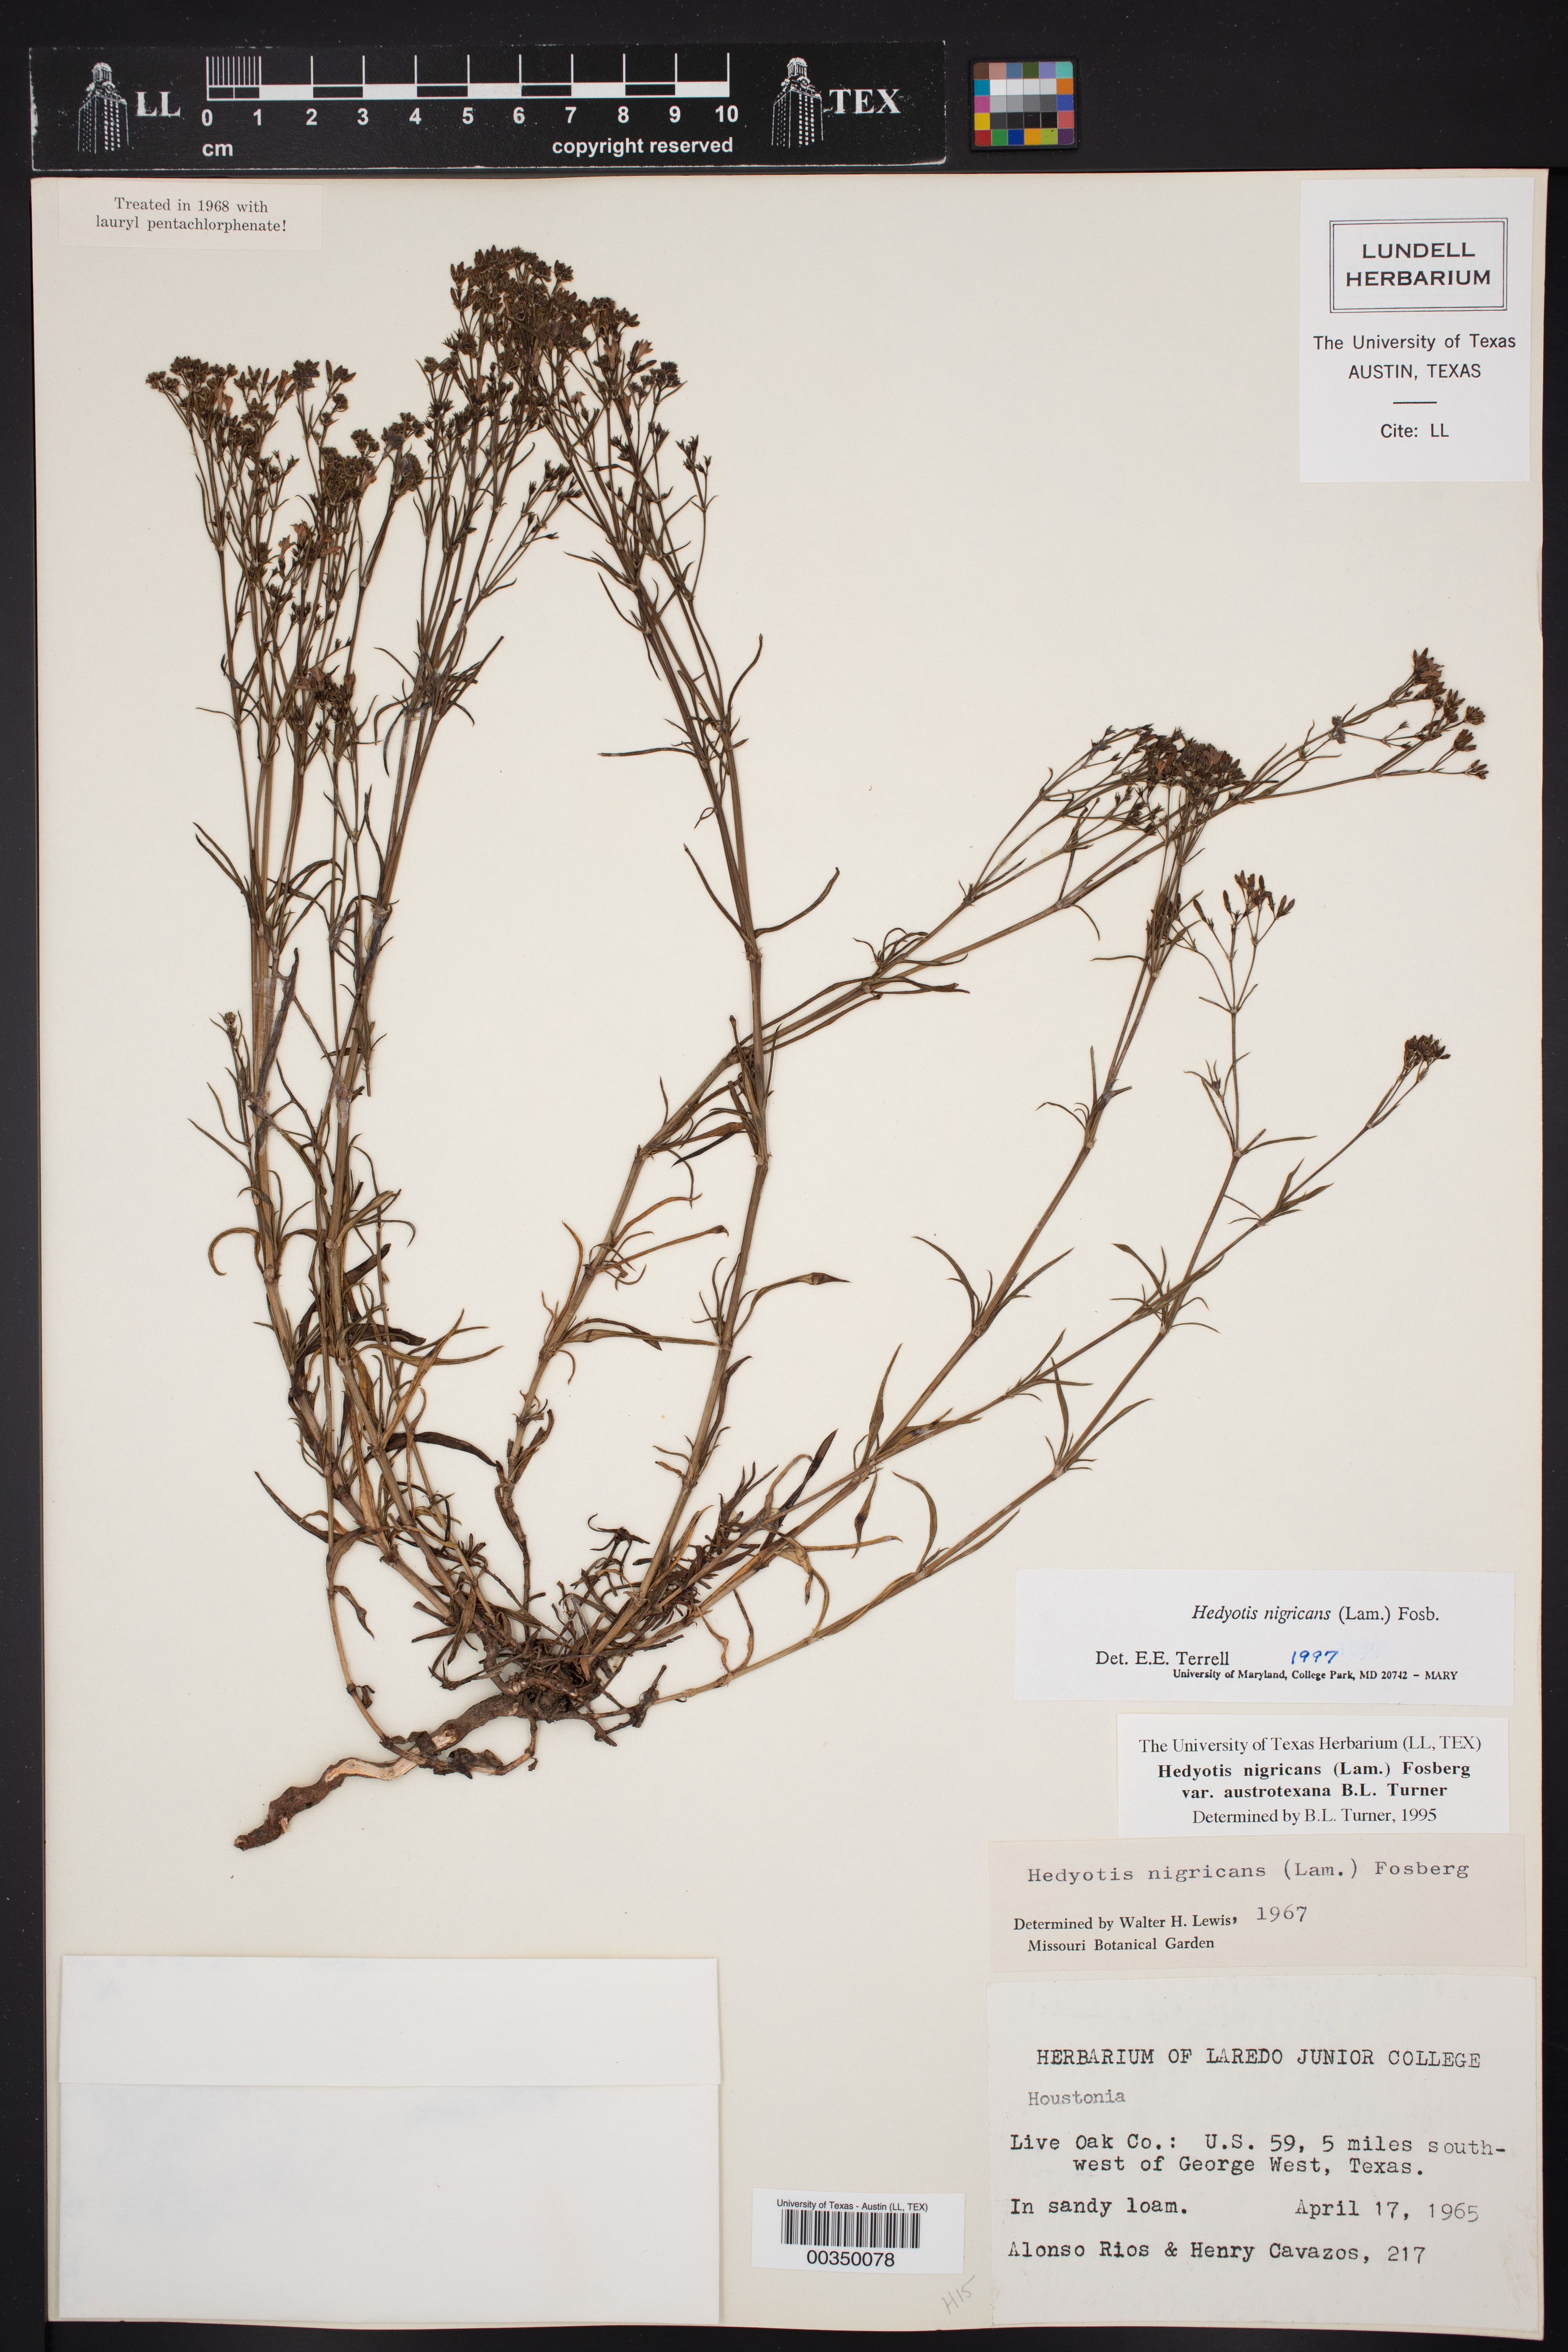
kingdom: Plantae
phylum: Tracheophyta
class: Magnoliopsida
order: Gentianales
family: Rubiaceae
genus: Stenaria
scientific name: Stenaria nigricans
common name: Diamondflowers
